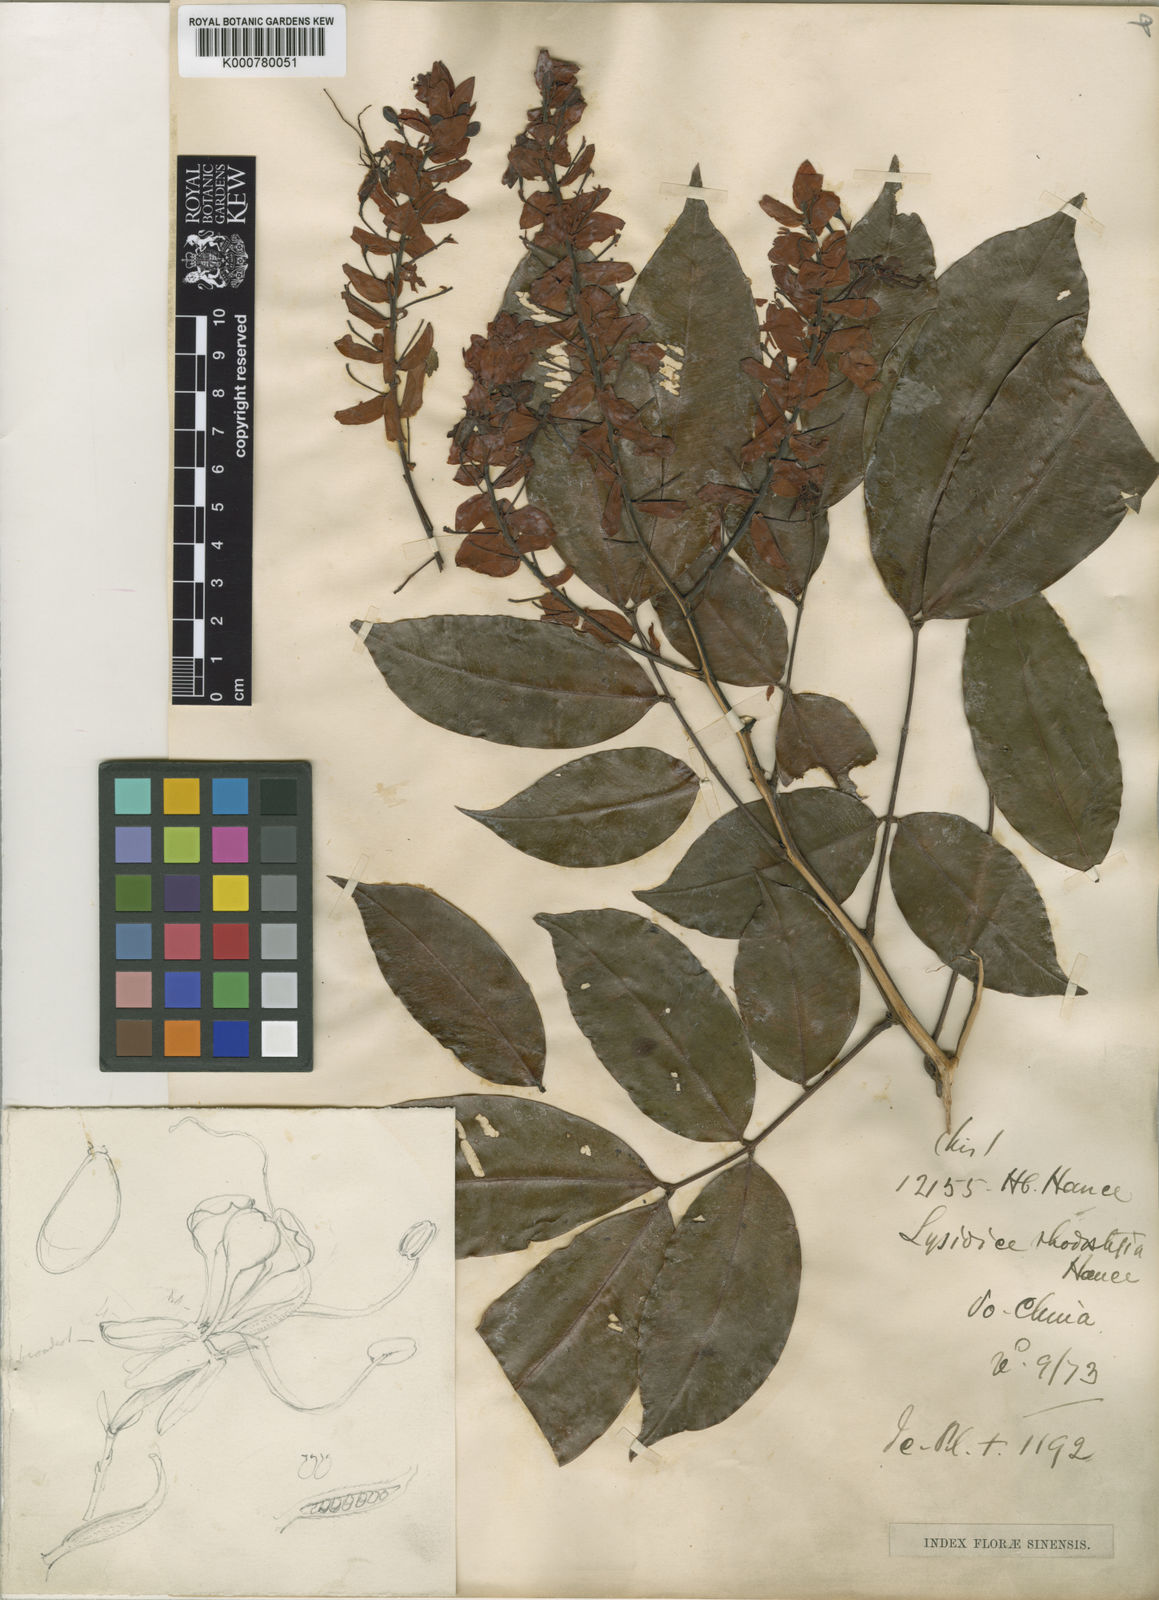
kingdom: Plantae
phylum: Tracheophyta
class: Magnoliopsida
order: Fabales
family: Fabaceae
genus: Lysidice
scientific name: Lysidice rhodostegia
